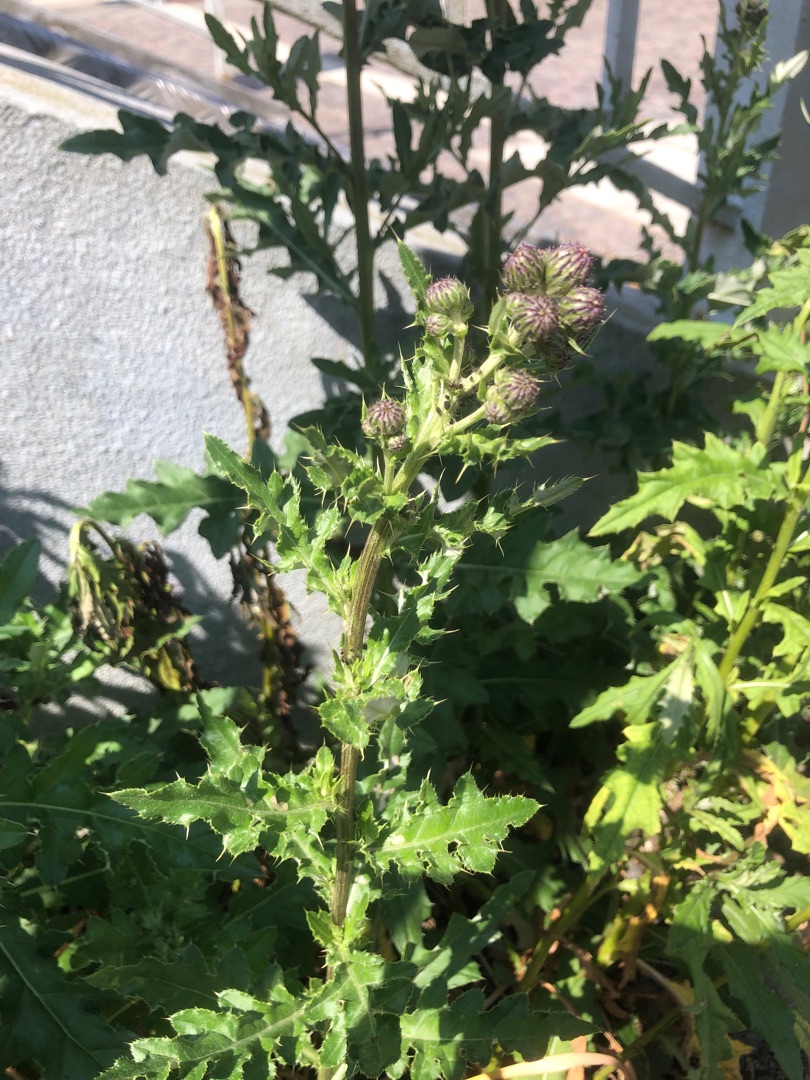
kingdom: Plantae
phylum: Tracheophyta
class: Magnoliopsida
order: Asterales
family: Asteraceae
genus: Cirsium
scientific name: Cirsium arvense
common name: Ager-tidsel
